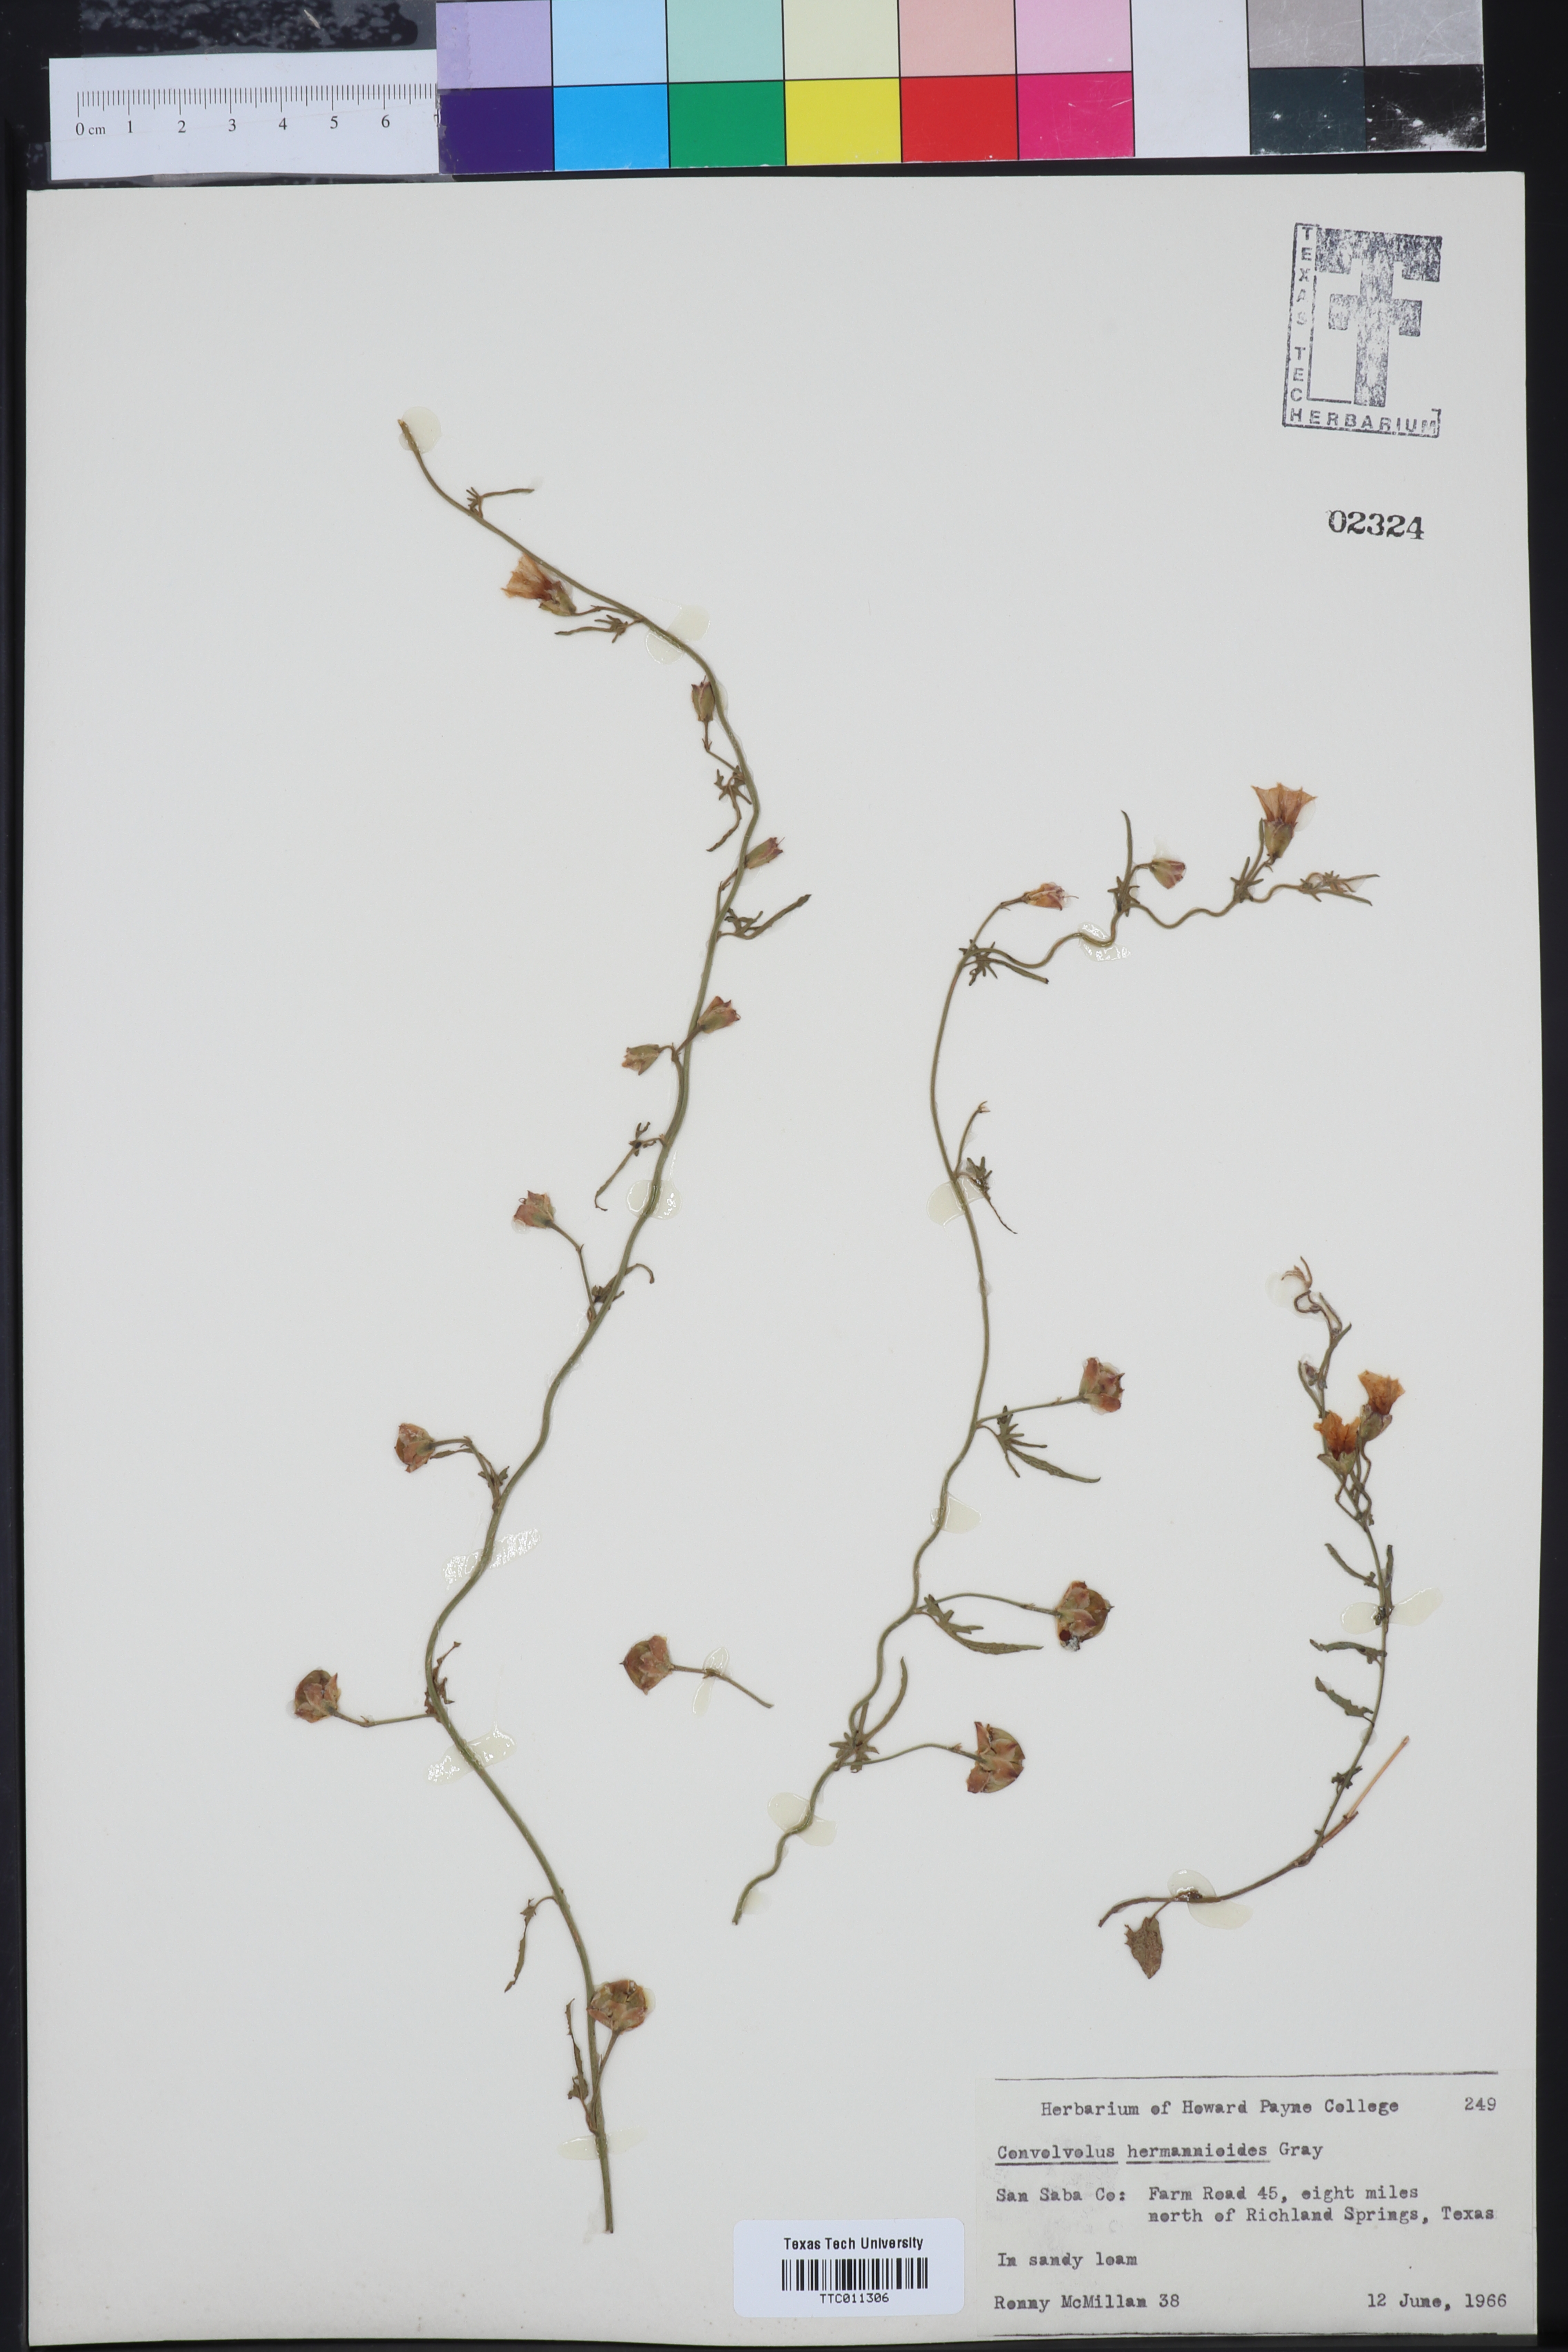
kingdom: Plantae
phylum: Tracheophyta
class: Magnoliopsida
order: Solanales
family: Convolvulaceae
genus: Convolvulus
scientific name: Convolvulus equitans
